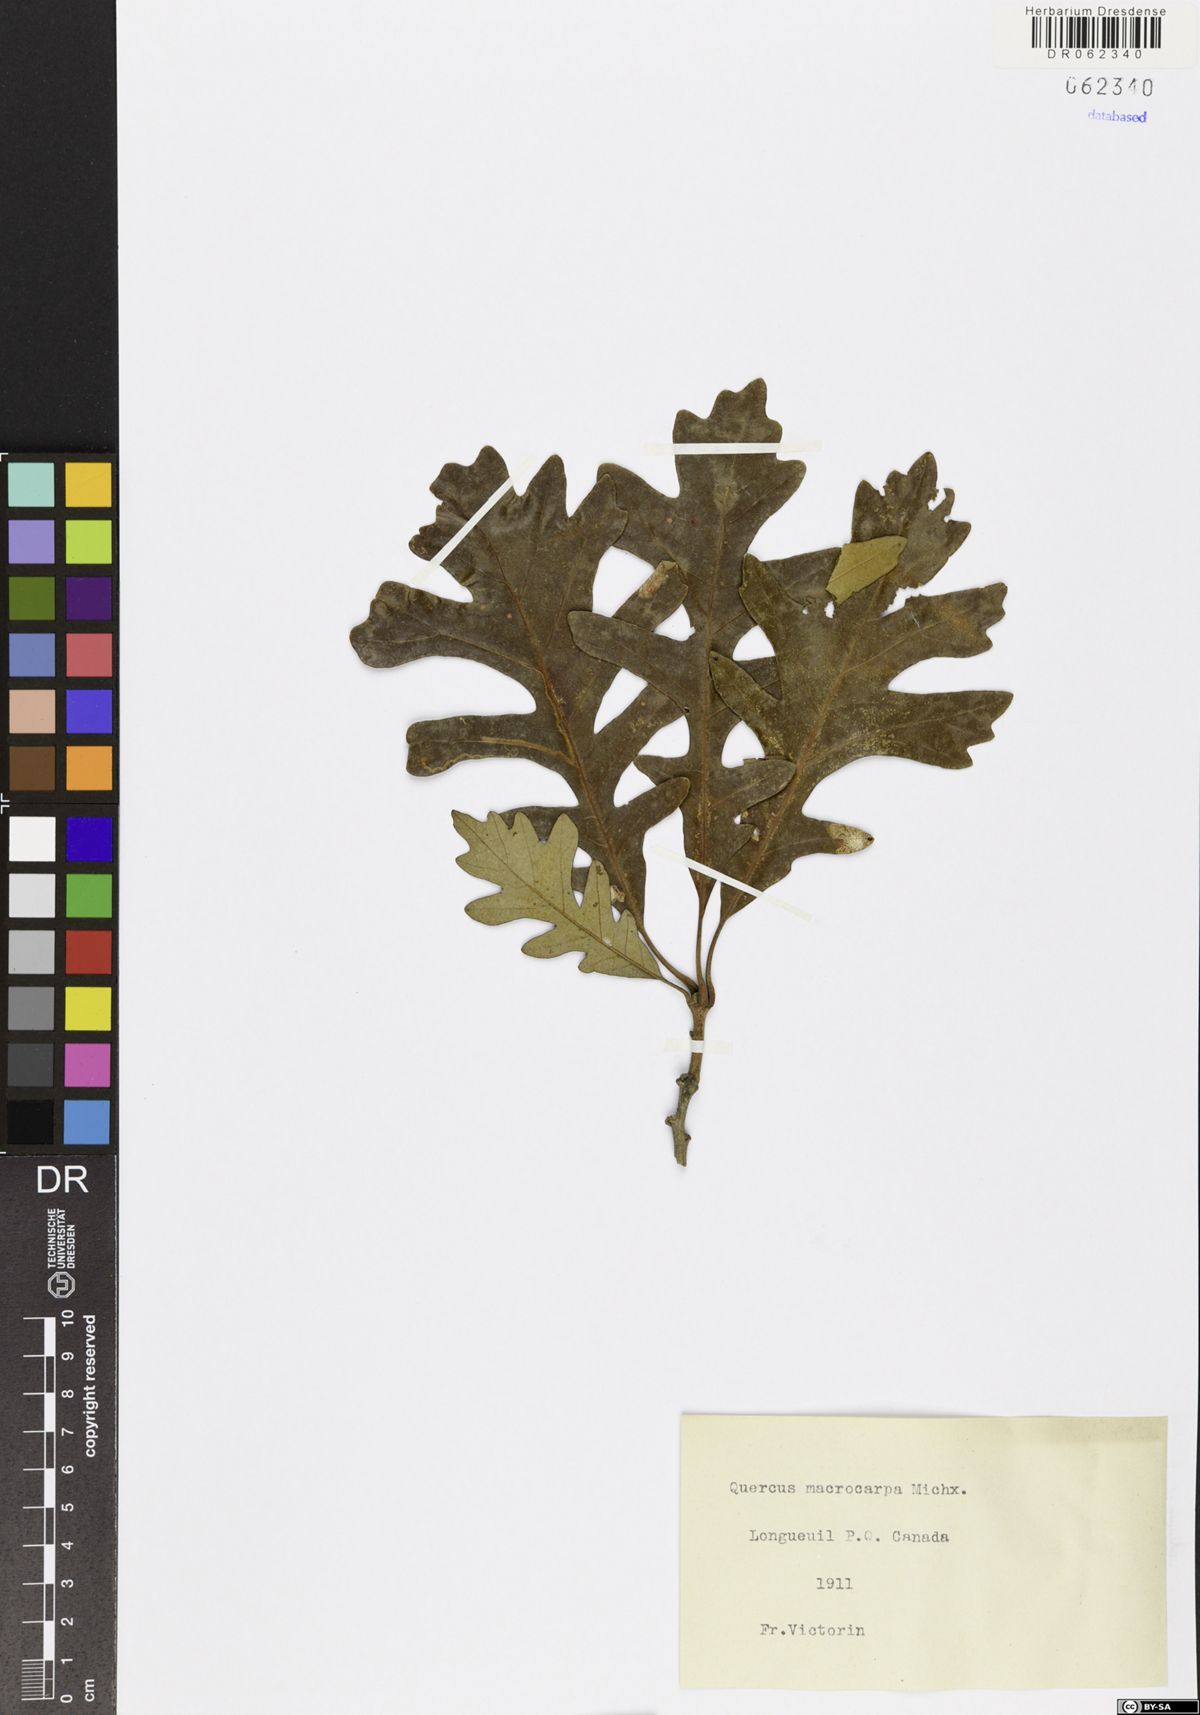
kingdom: Plantae
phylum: Tracheophyta
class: Magnoliopsida
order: Fagales
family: Fagaceae
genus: Quercus
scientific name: Quercus macrocarpa
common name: Bur oak
